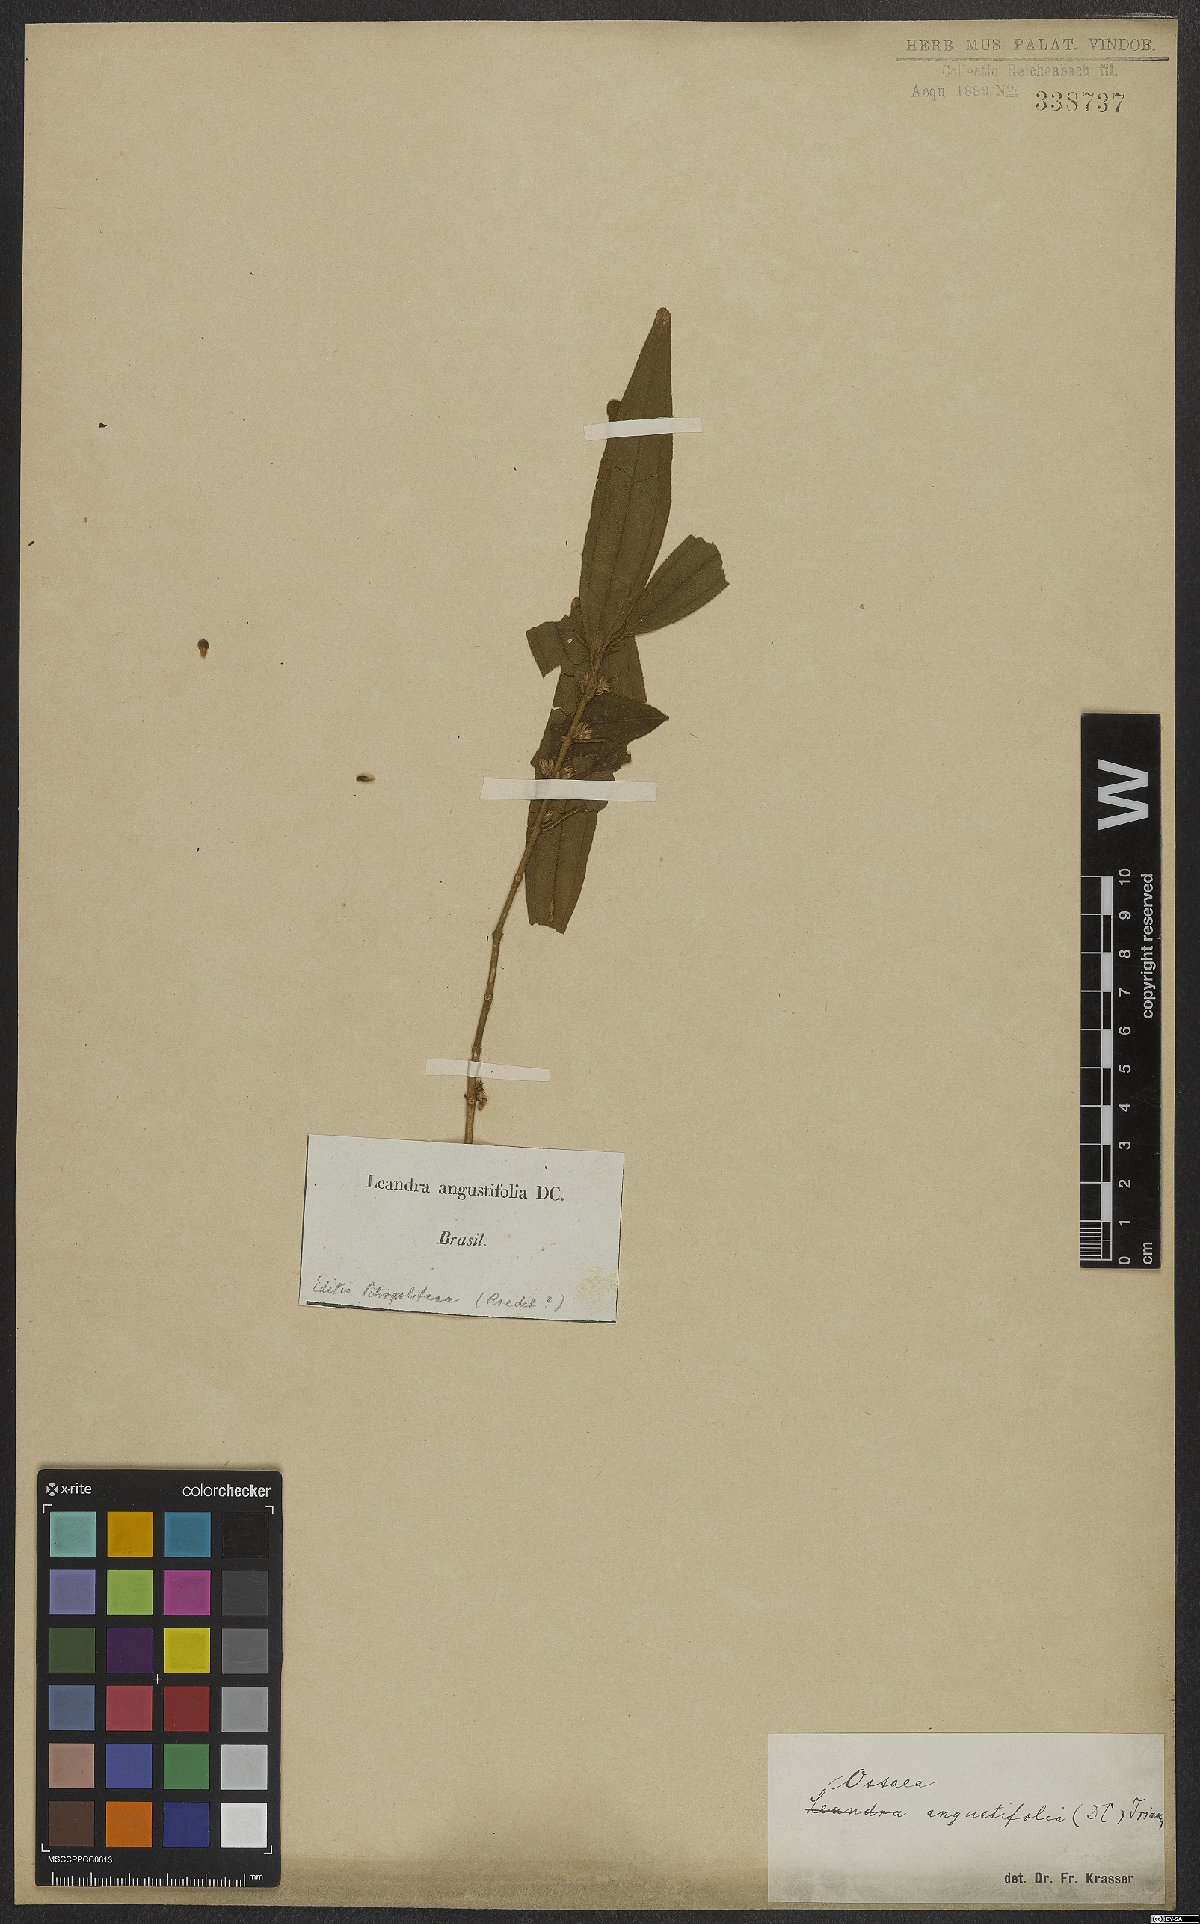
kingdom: Plantae
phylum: Tracheophyta
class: Magnoliopsida
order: Myrtales
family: Melastomataceae
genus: Miconia
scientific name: Miconia corcovadensis
